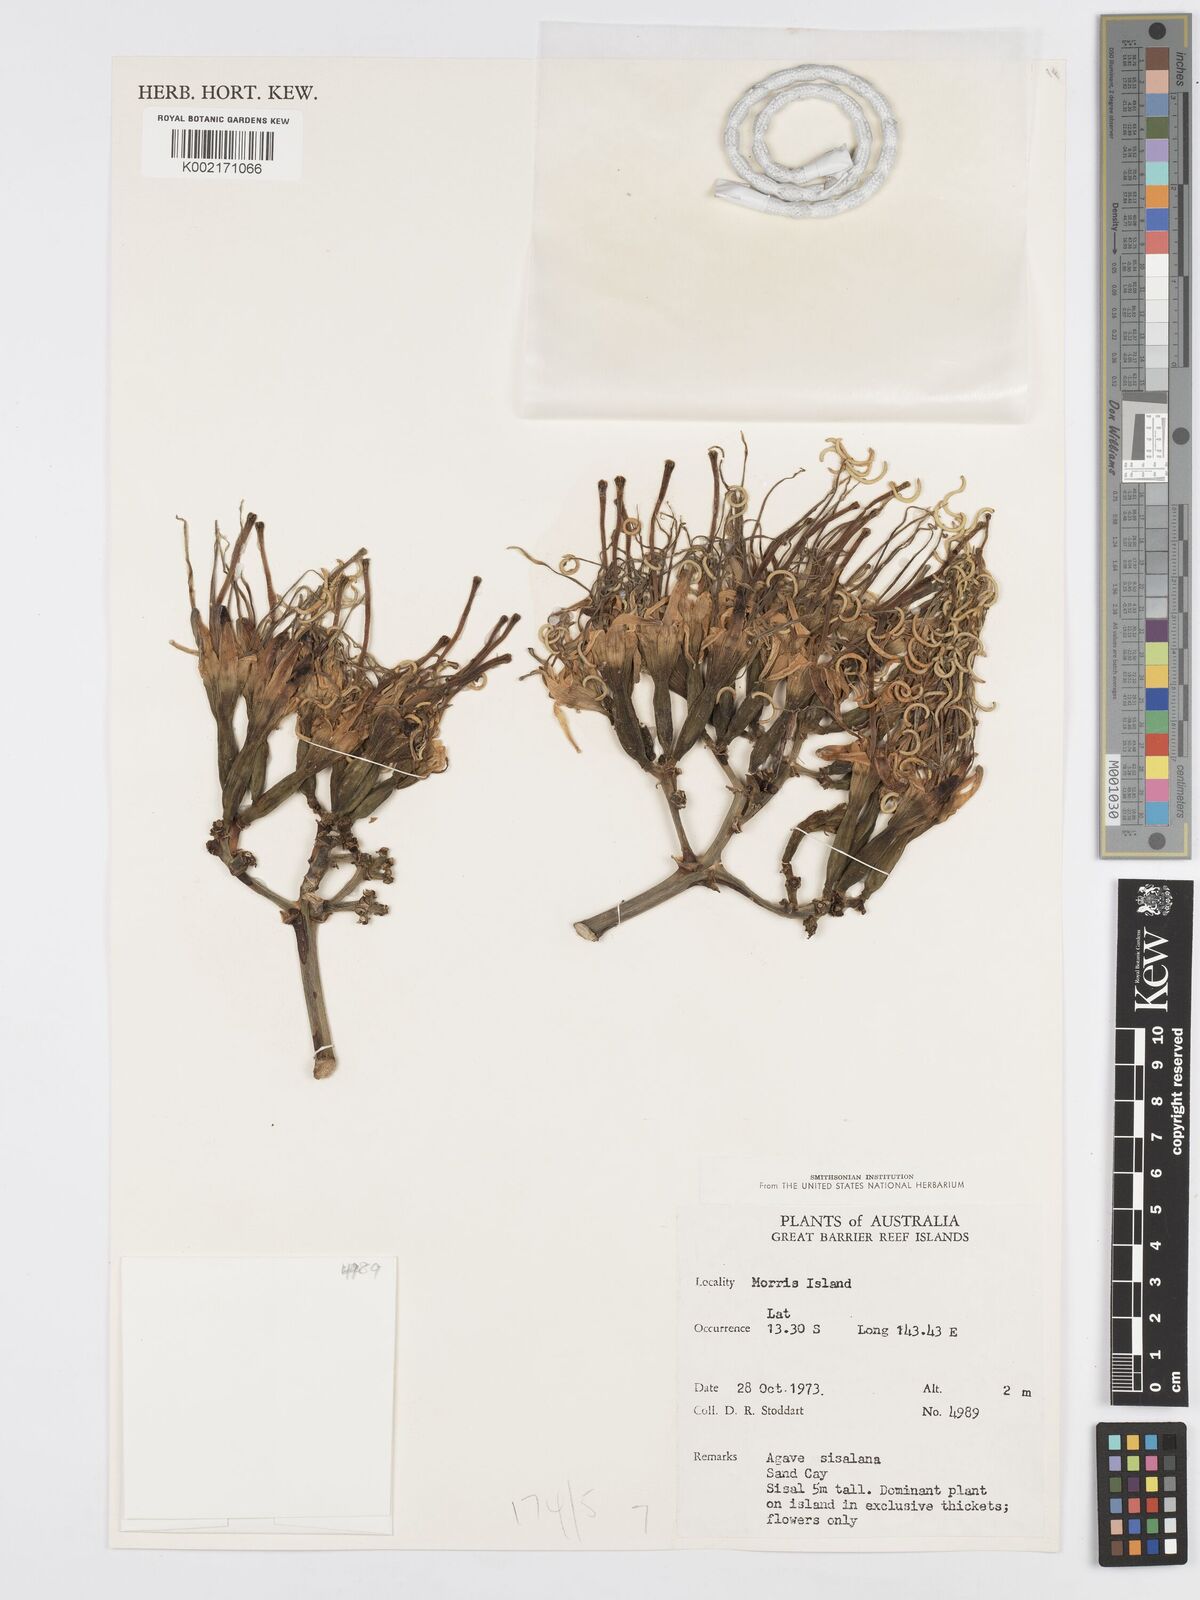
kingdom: Plantae
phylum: Tracheophyta
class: Liliopsida
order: Asparagales
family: Asparagaceae
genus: Agave
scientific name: Agave sisalana
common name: Sisal hemp
